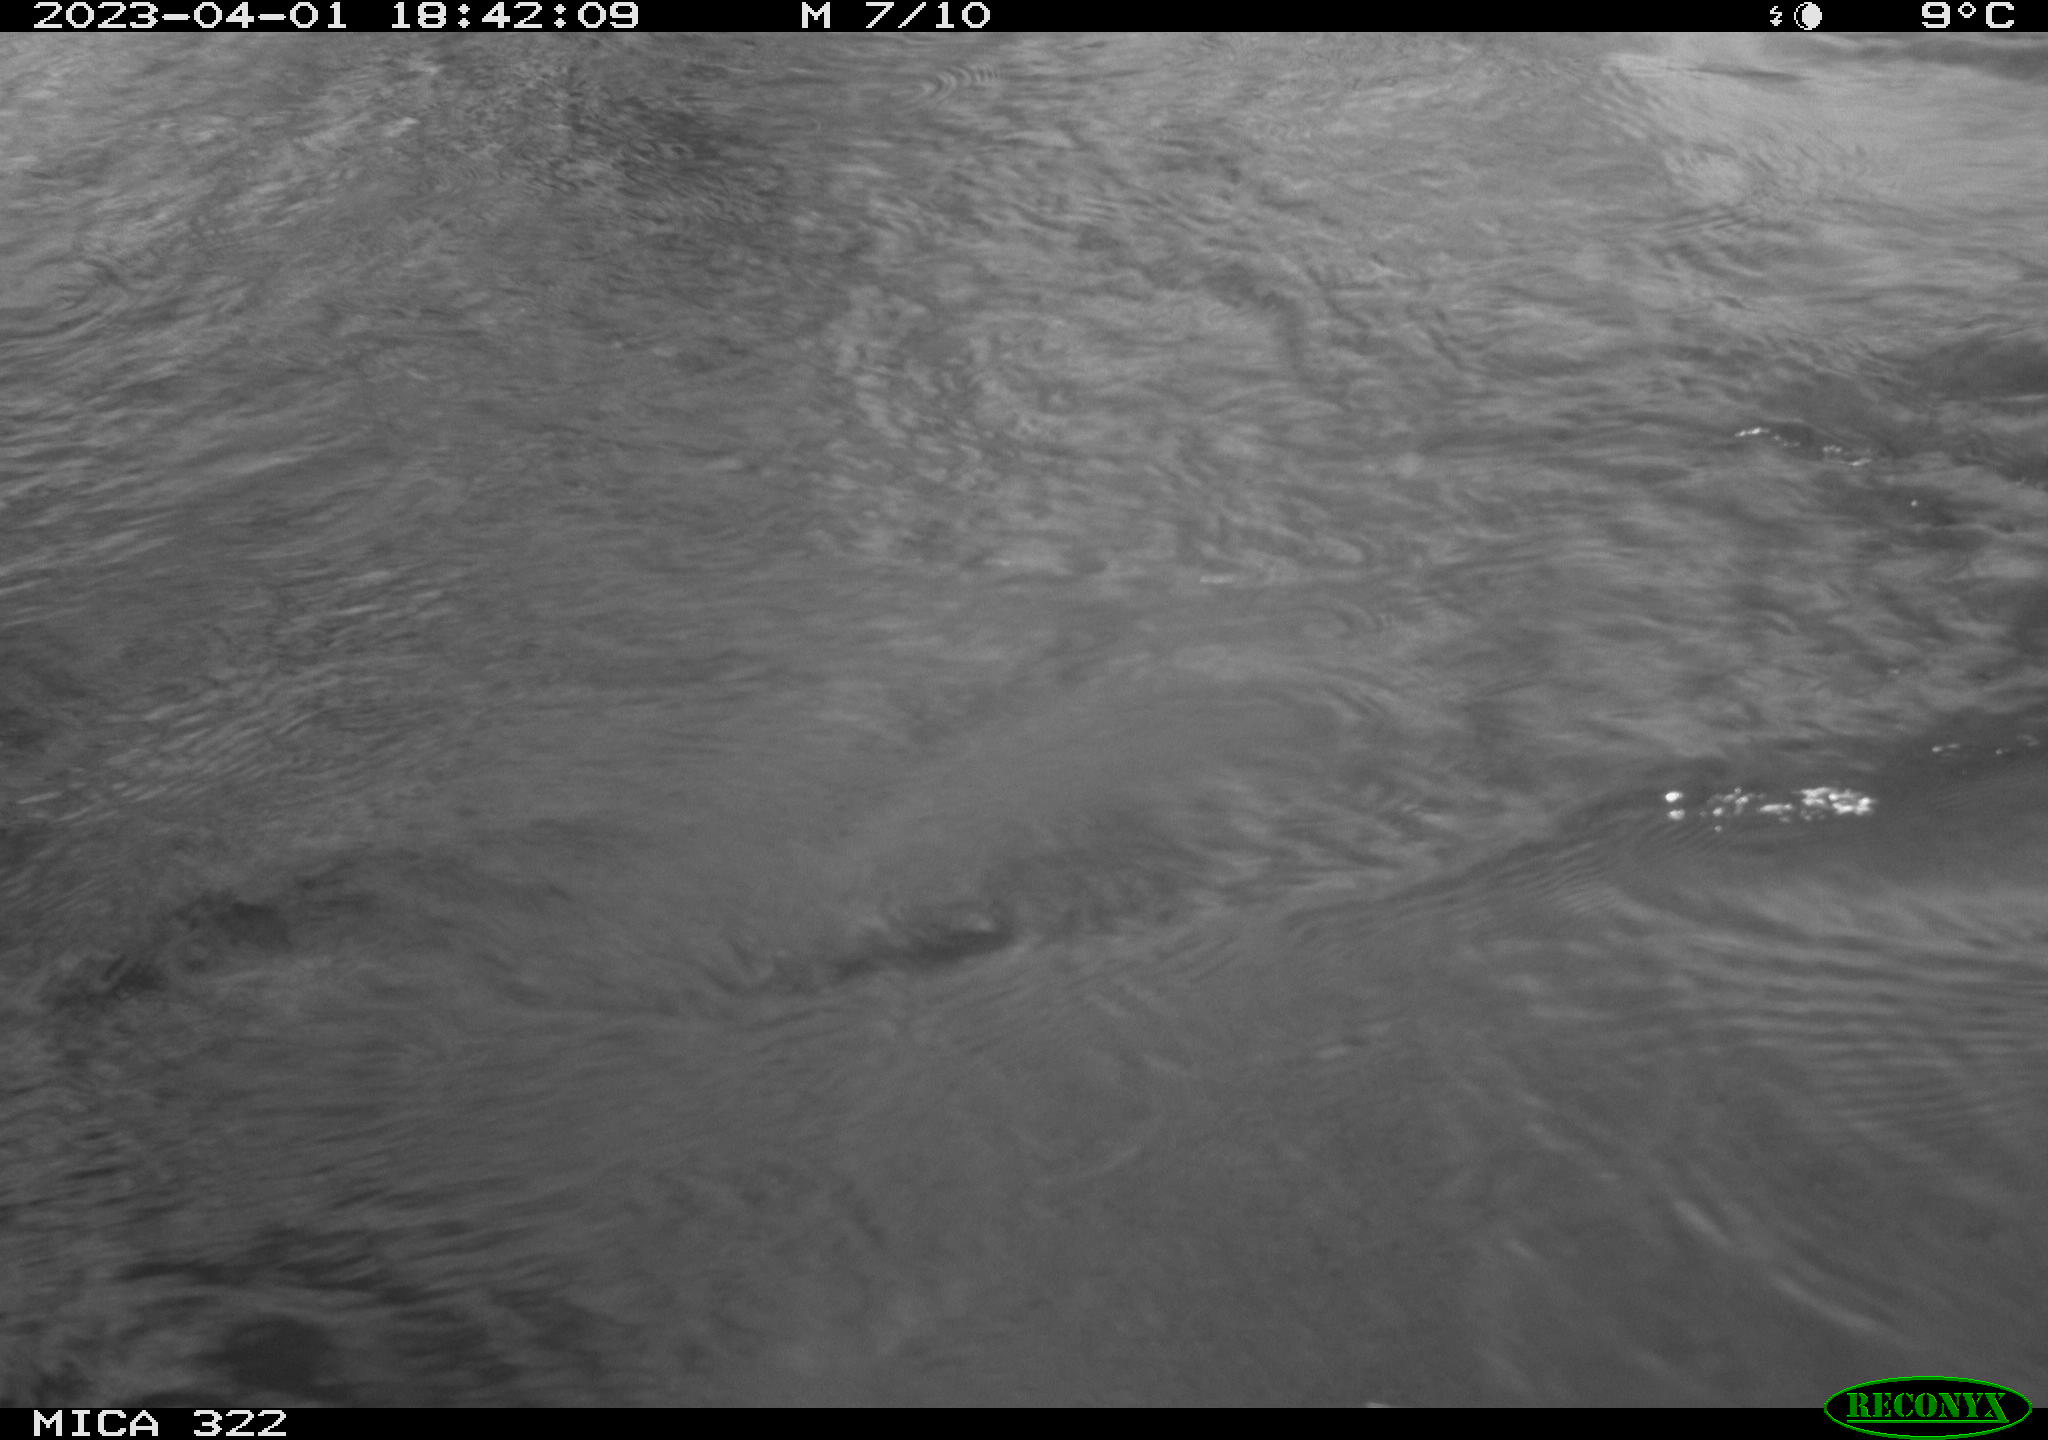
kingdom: Animalia
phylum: Chordata
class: Aves
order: Anseriformes
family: Anatidae
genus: Anas
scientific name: Anas
